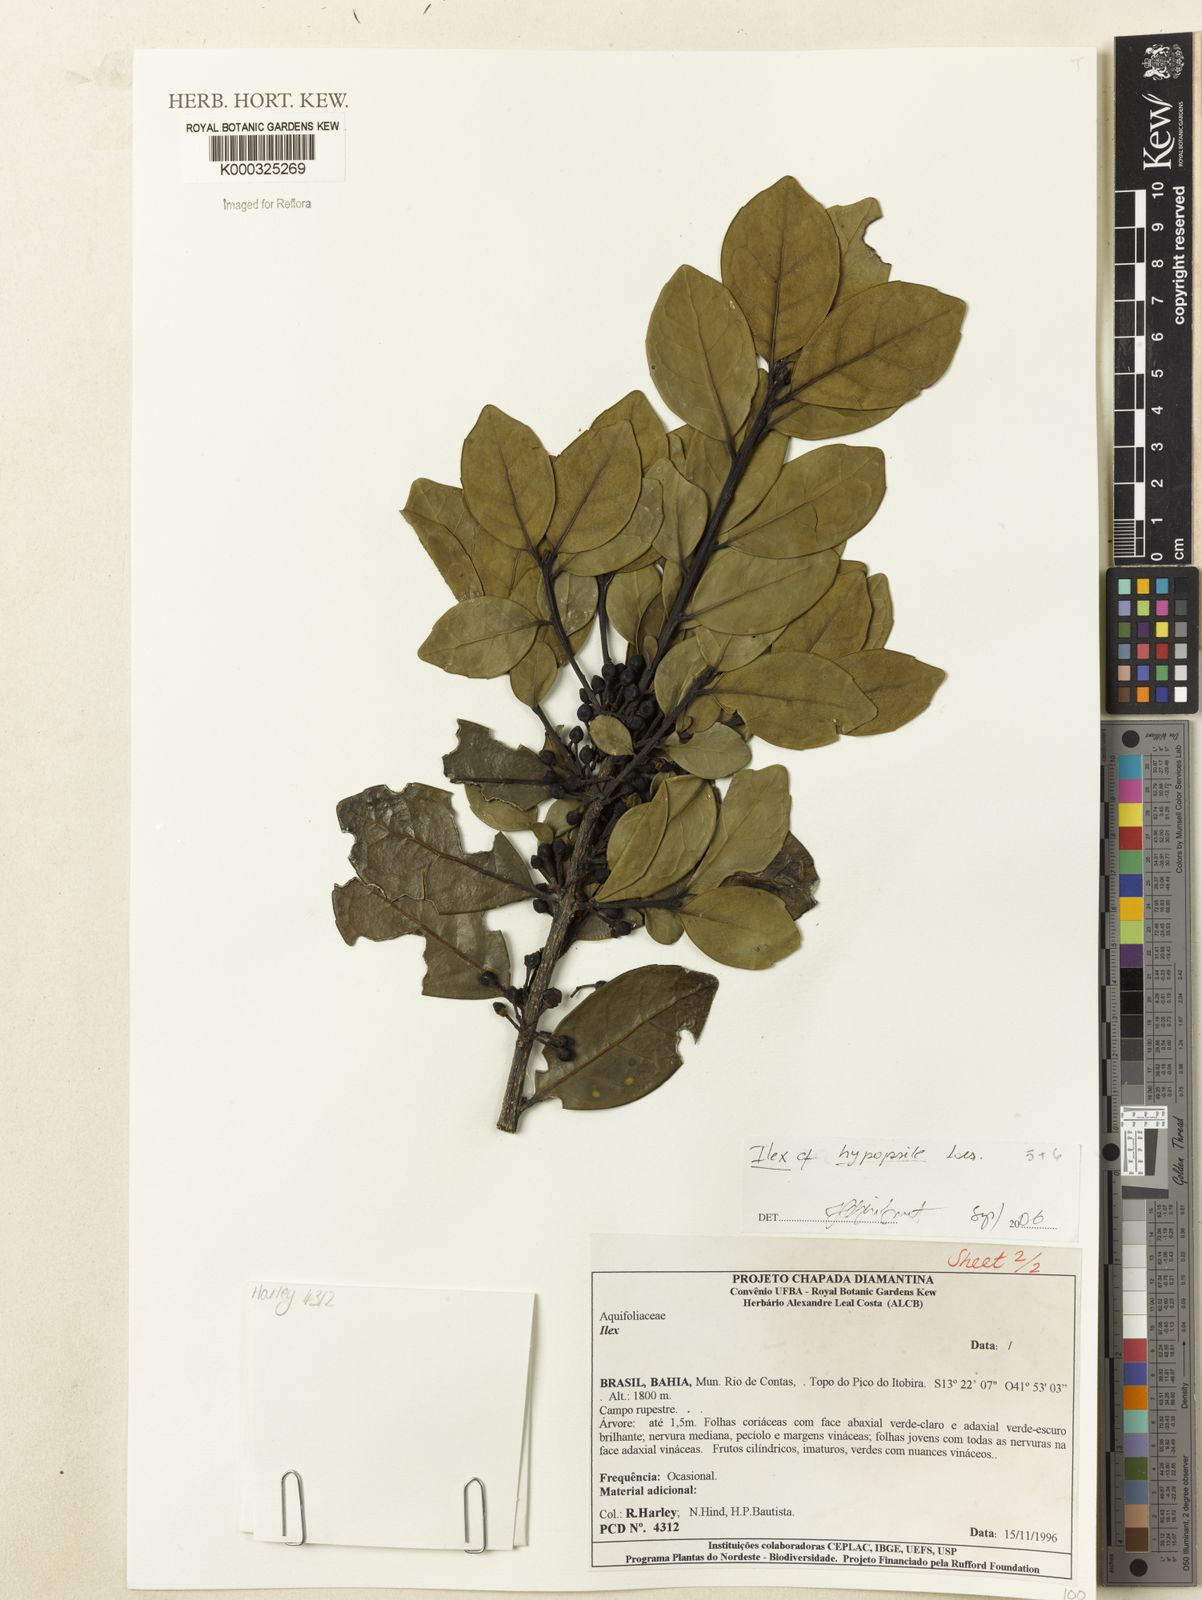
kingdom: Plantae
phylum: Tracheophyta
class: Magnoliopsida
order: Aquifoliales
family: Aquifoliaceae
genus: Ilex
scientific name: Ilex hypopsile
